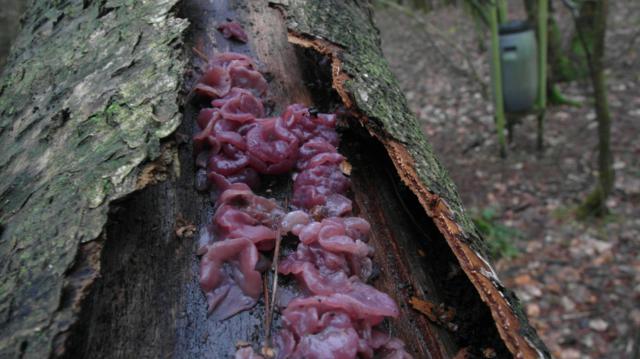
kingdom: Fungi
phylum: Ascomycota
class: Leotiomycetes
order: Helotiales
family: Gelatinodiscaceae
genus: Ascocoryne
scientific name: Ascocoryne cylichnium
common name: stor sejskive
